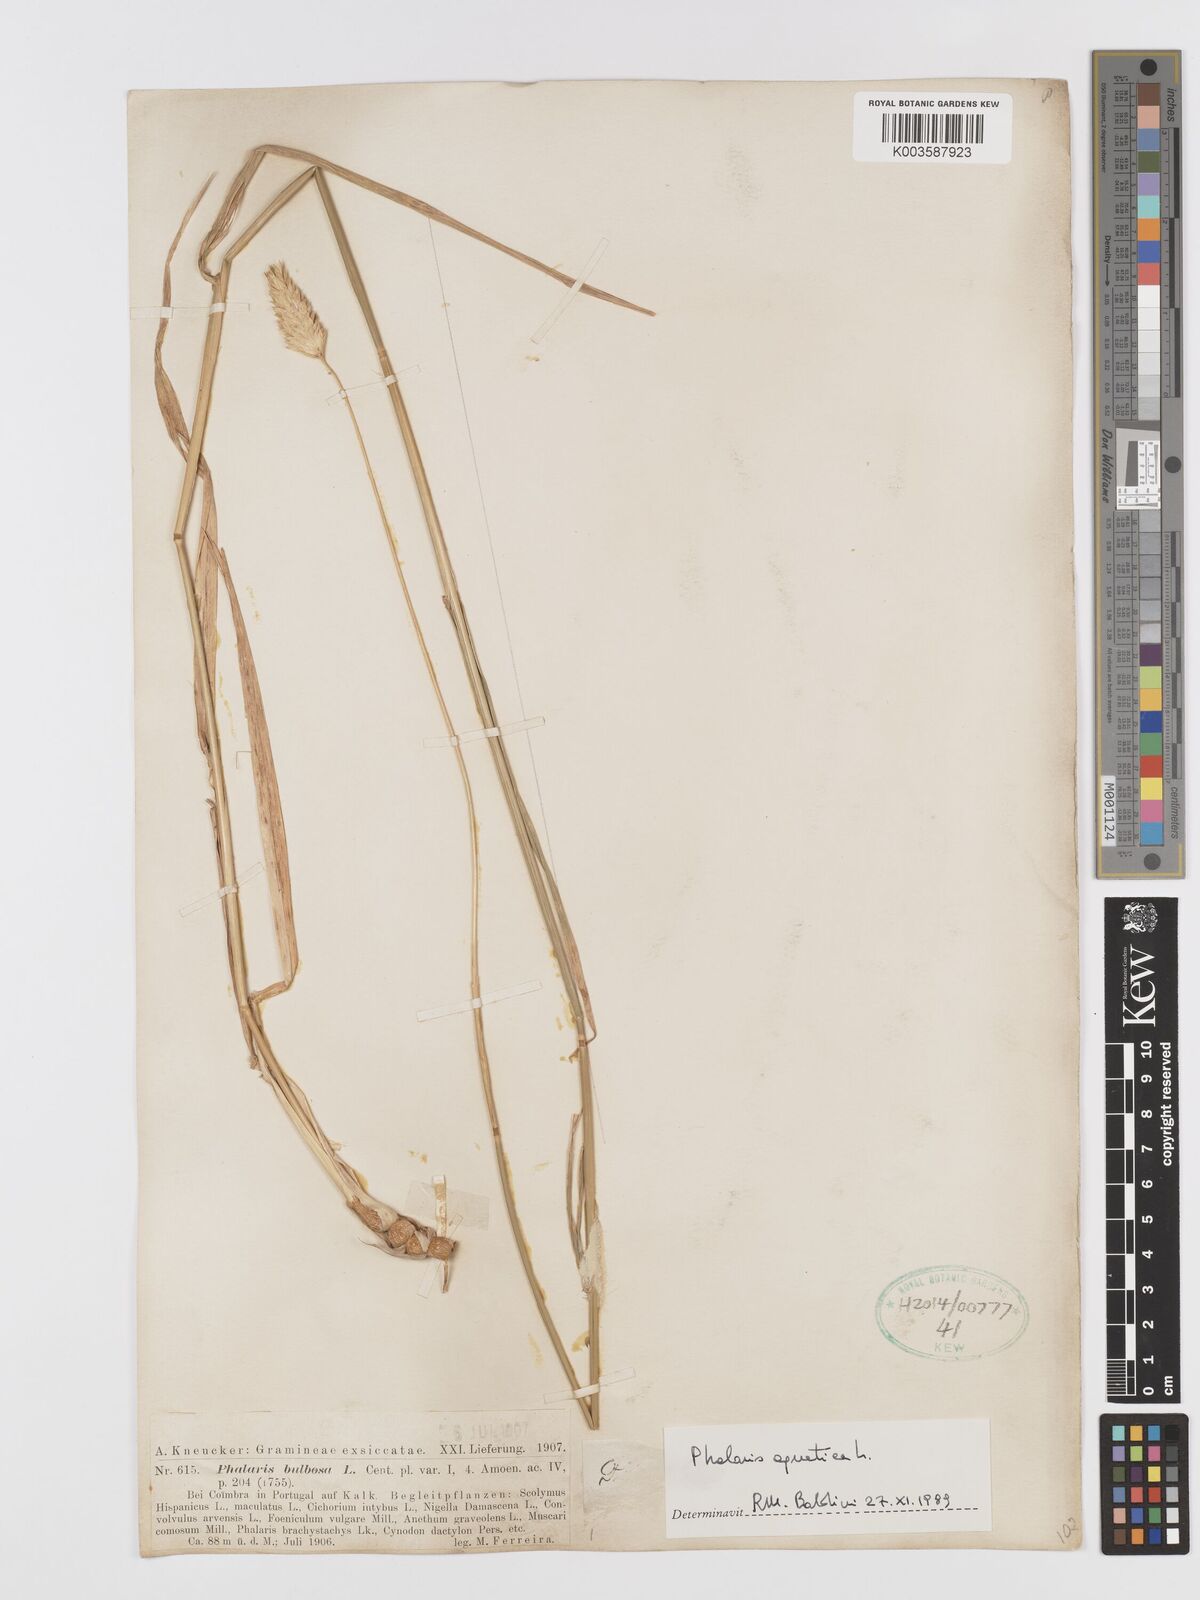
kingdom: Plantae
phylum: Tracheophyta
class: Liliopsida
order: Poales
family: Poaceae
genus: Phalaris
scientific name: Phalaris
